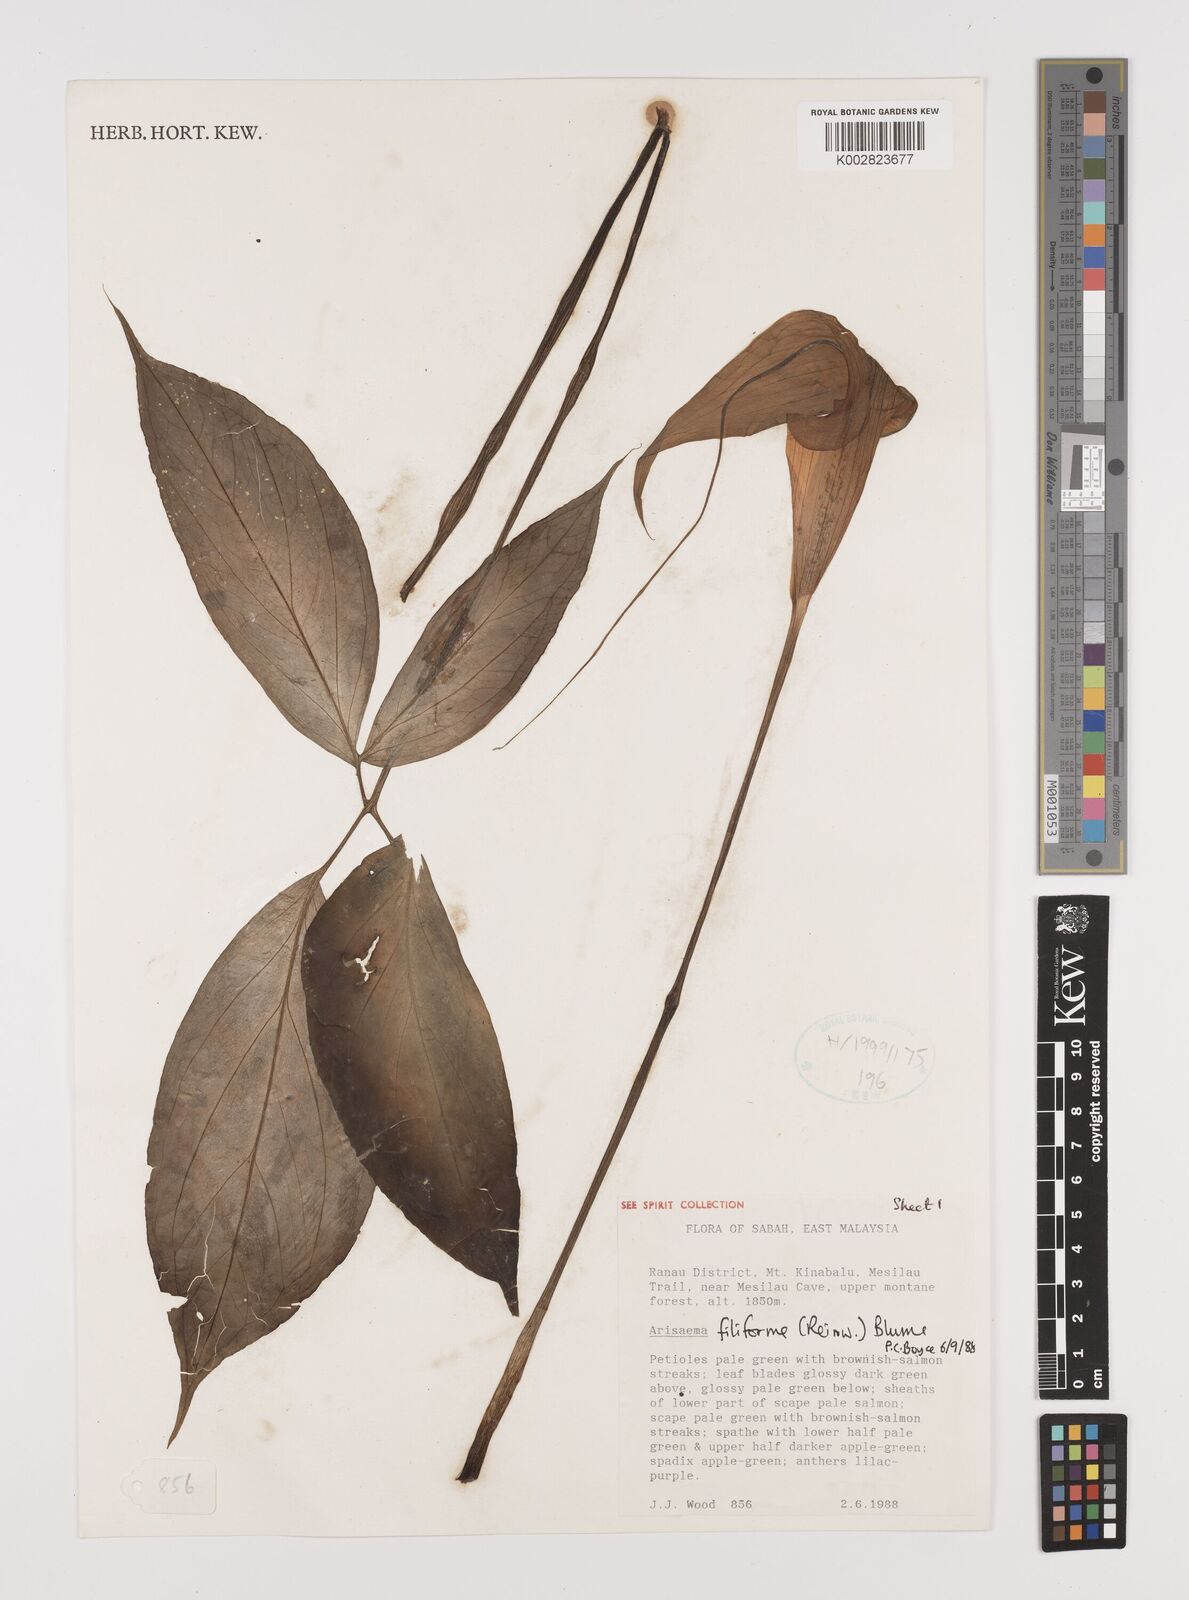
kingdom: Plantae
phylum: Tracheophyta
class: Liliopsida
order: Alismatales
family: Araceae
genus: Arisaema
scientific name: Arisaema filiforme
